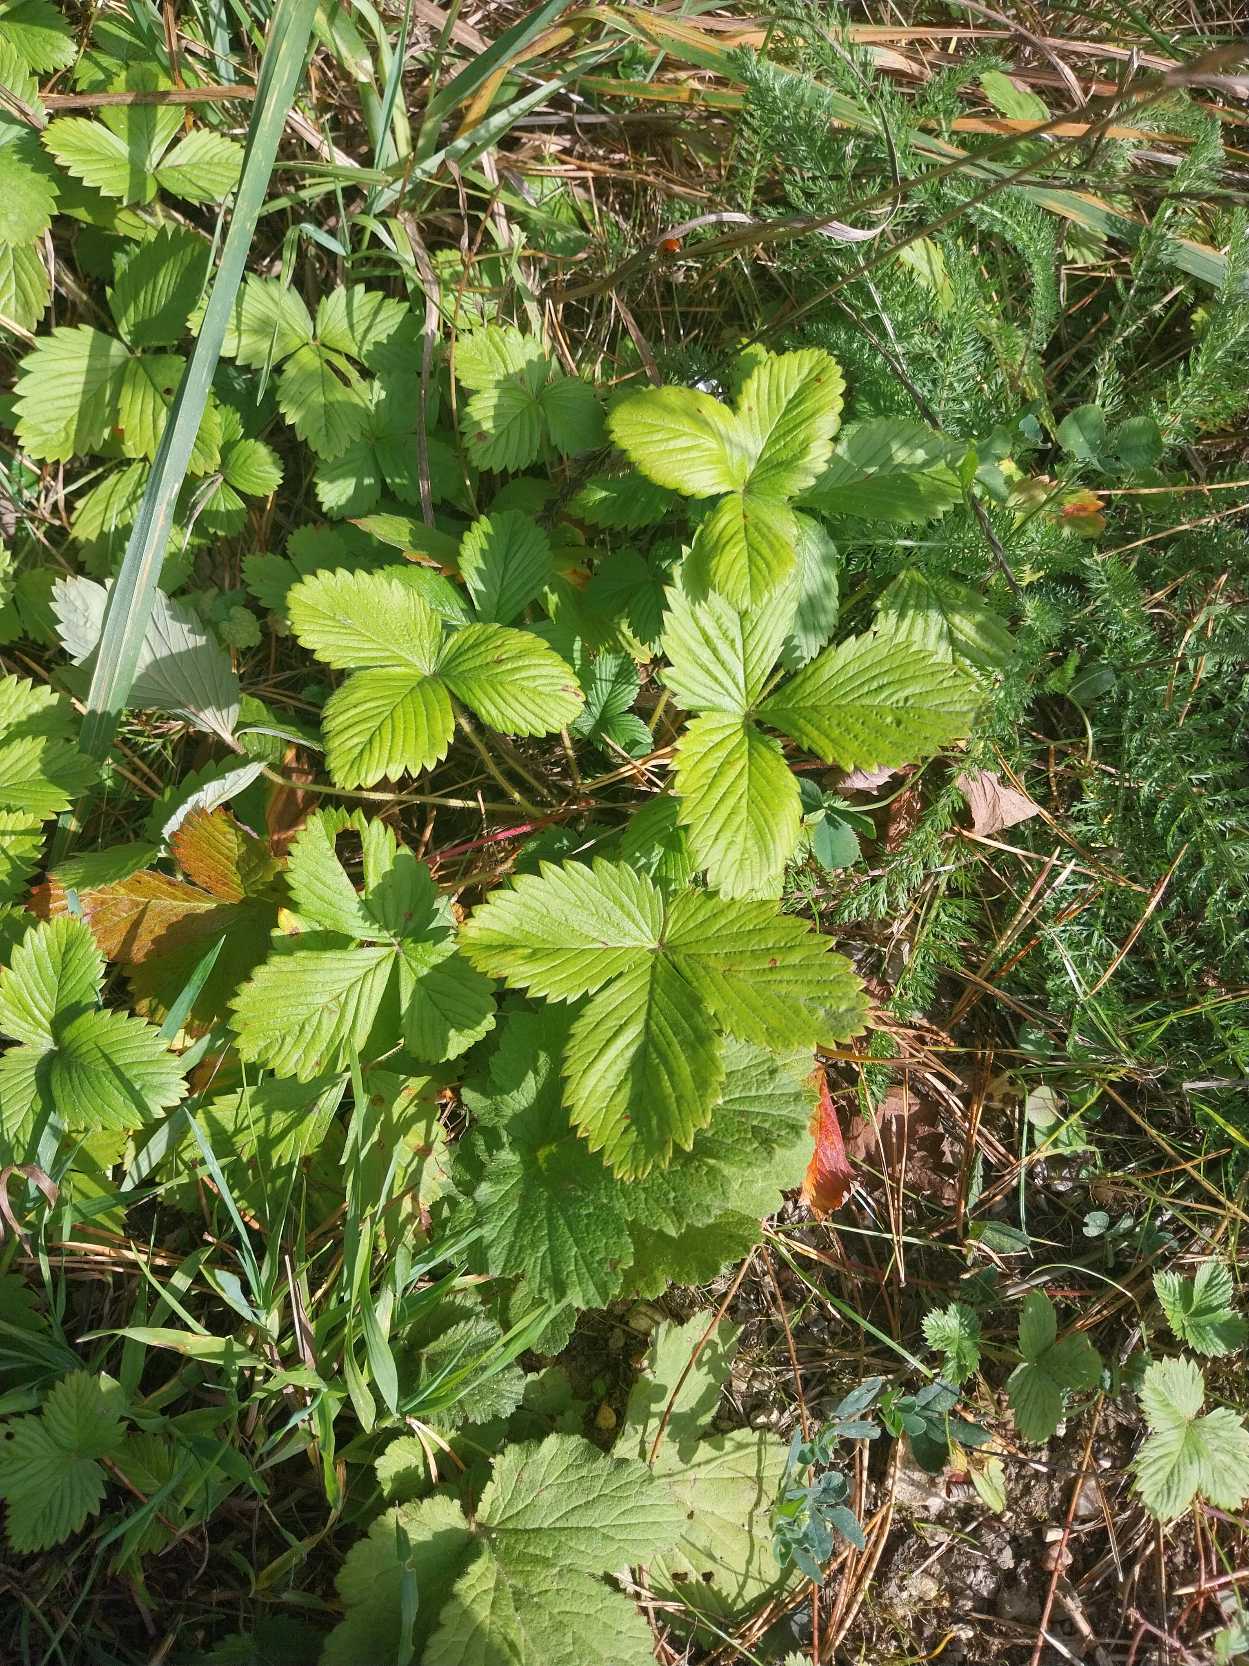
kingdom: Plantae
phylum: Tracheophyta
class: Magnoliopsida
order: Rosales
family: Rosaceae
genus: Fragaria
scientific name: Fragaria vesca
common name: Skov-jordbær
